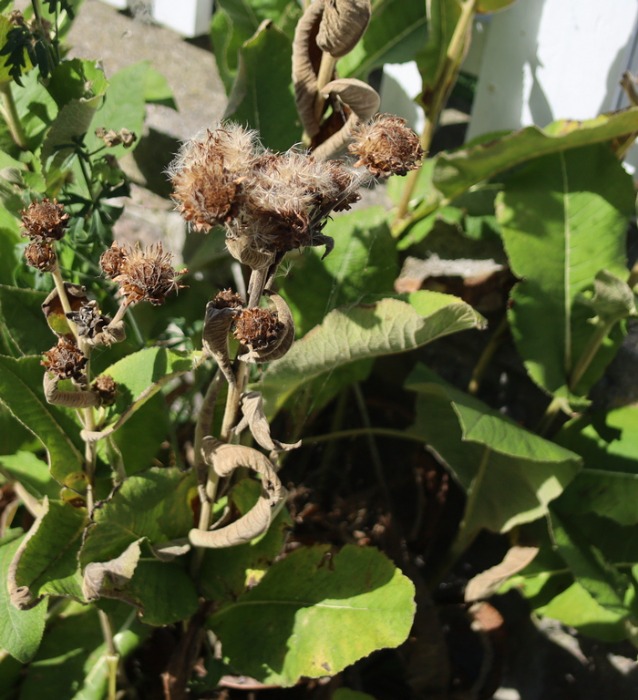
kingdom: Plantae
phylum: Tracheophyta
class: Magnoliopsida
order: Asterales
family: Asteraceae
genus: Inula
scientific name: Inula helenium
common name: Læge-alant
